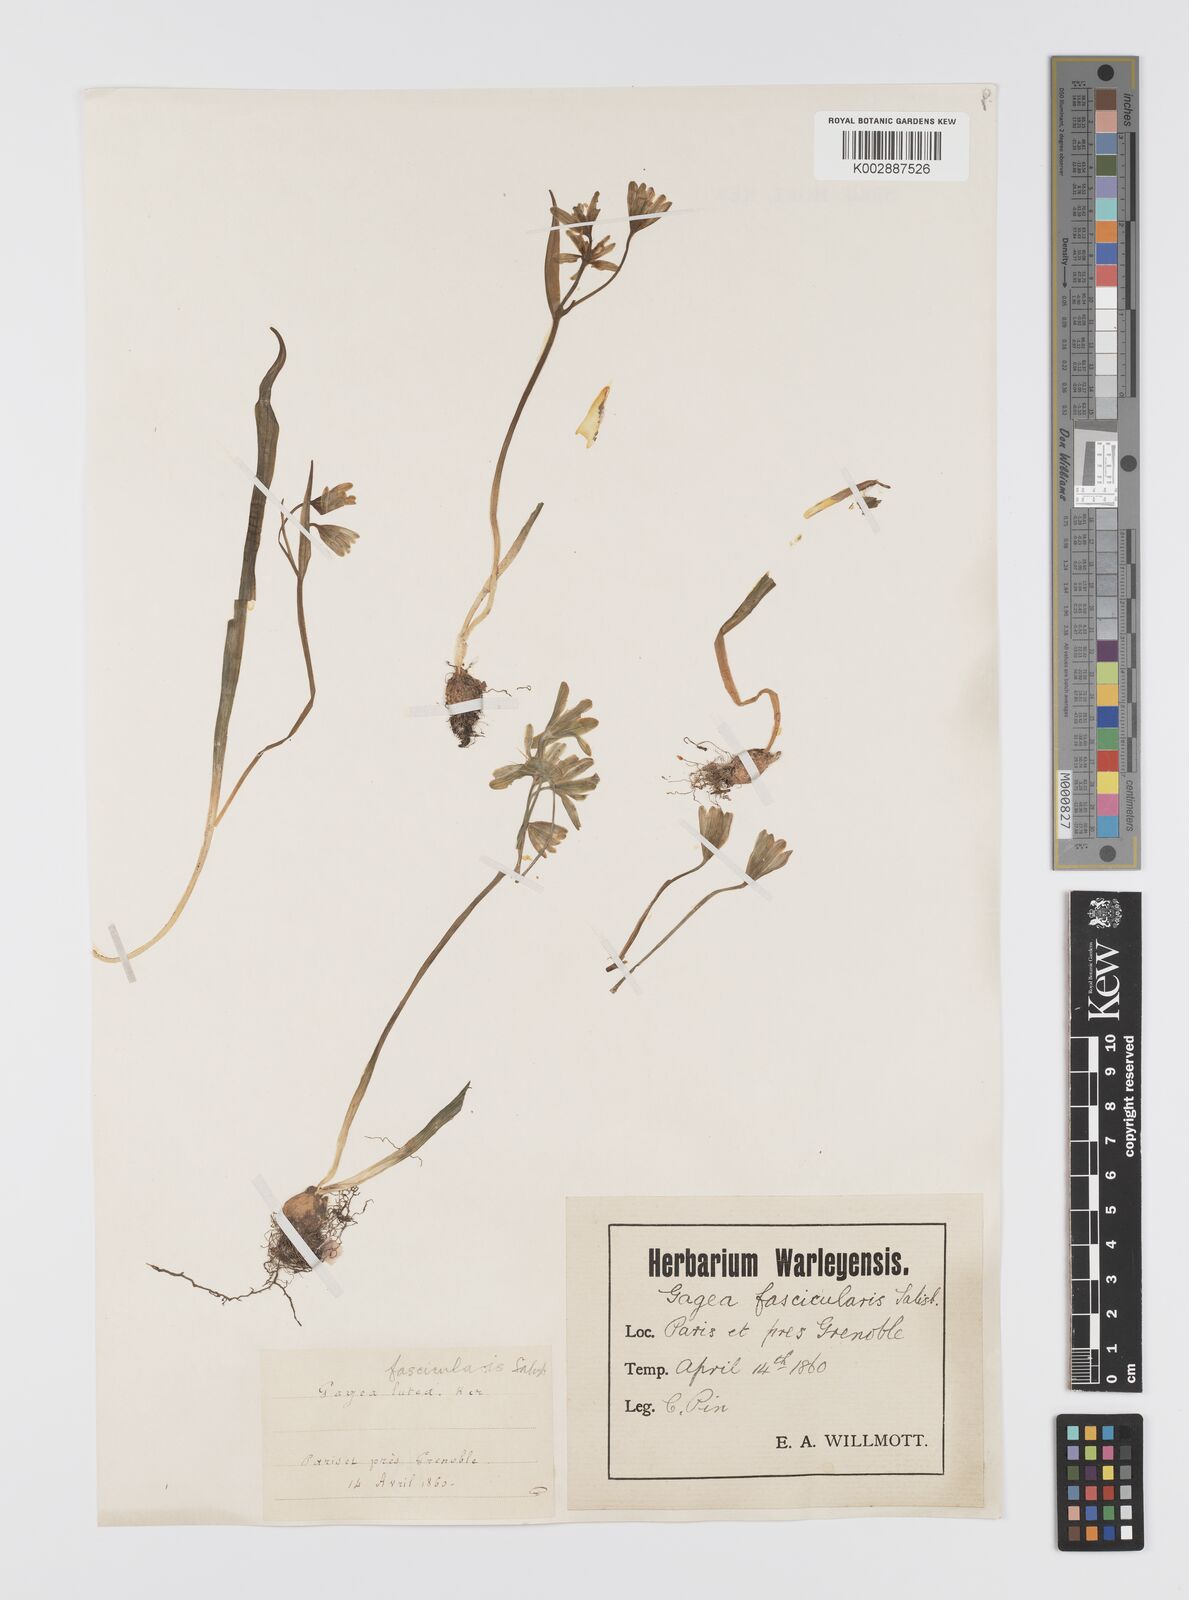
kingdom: Plantae
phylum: Tracheophyta
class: Liliopsida
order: Liliales
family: Liliaceae
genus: Gagea
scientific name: Gagea lutea
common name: Yellow star-of-bethlehem
